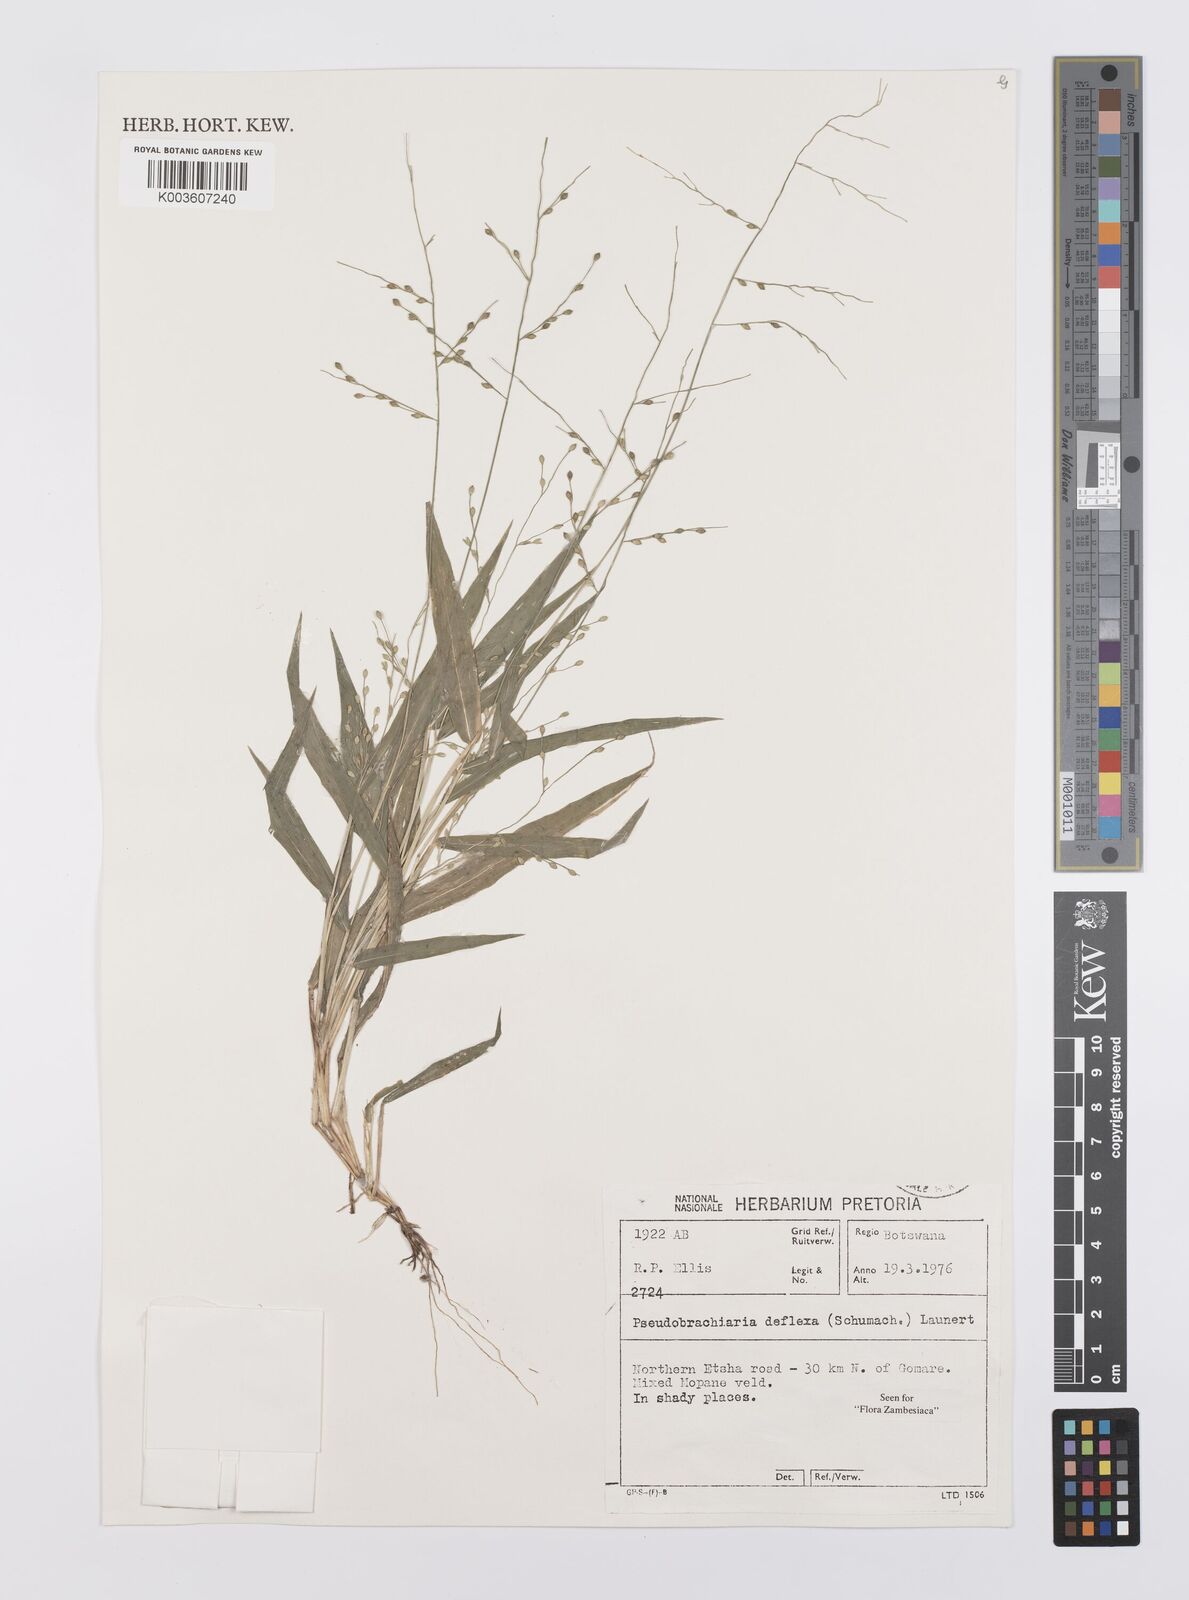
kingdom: Plantae
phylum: Tracheophyta
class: Liliopsida
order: Poales
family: Poaceae
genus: Urochloa
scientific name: Urochloa deflexa
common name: Guinea millet
